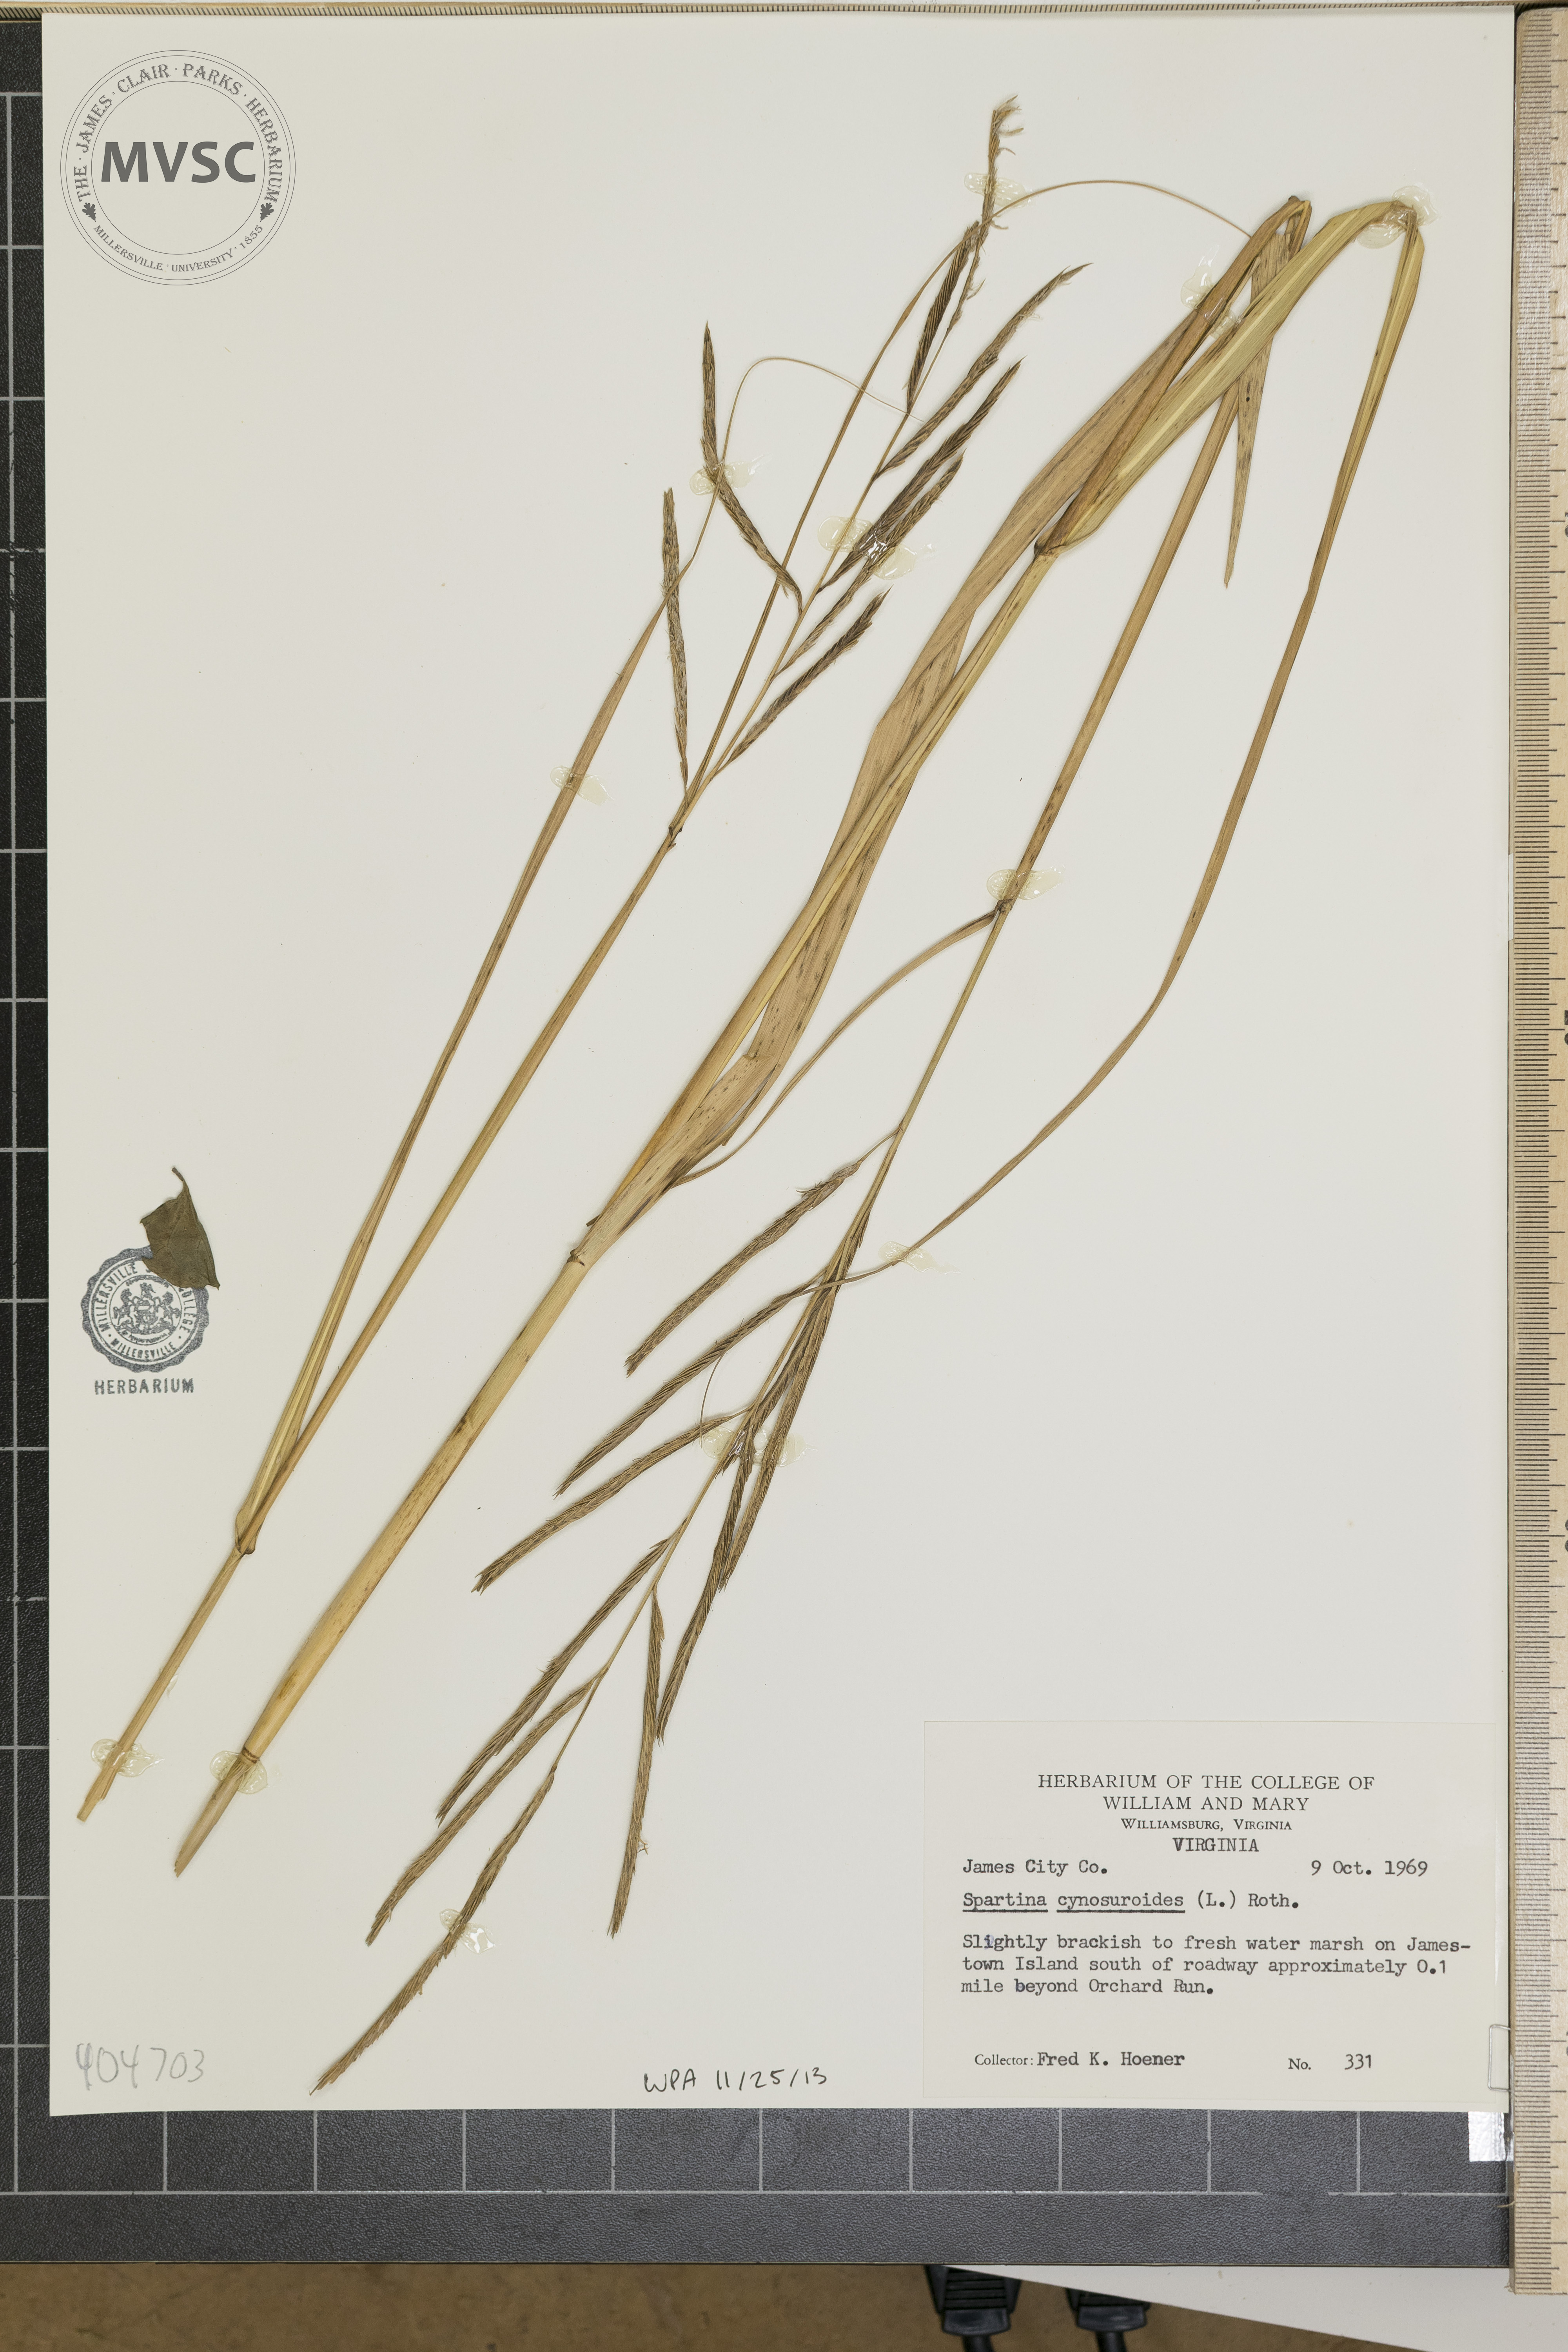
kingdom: Plantae
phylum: Tracheophyta
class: Liliopsida
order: Poales
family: Poaceae
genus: Sporobolus
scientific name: Sporobolus cynosuroides
